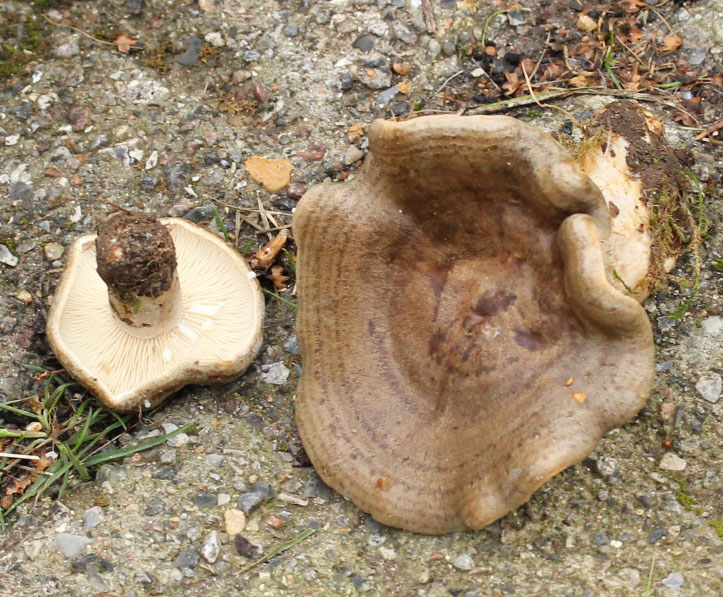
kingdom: Fungi
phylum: Basidiomycota
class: Agaricomycetes
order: Russulales
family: Russulaceae
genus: Lactarius
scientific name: Lactarius blennius
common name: dråbeplettet mælkehat
